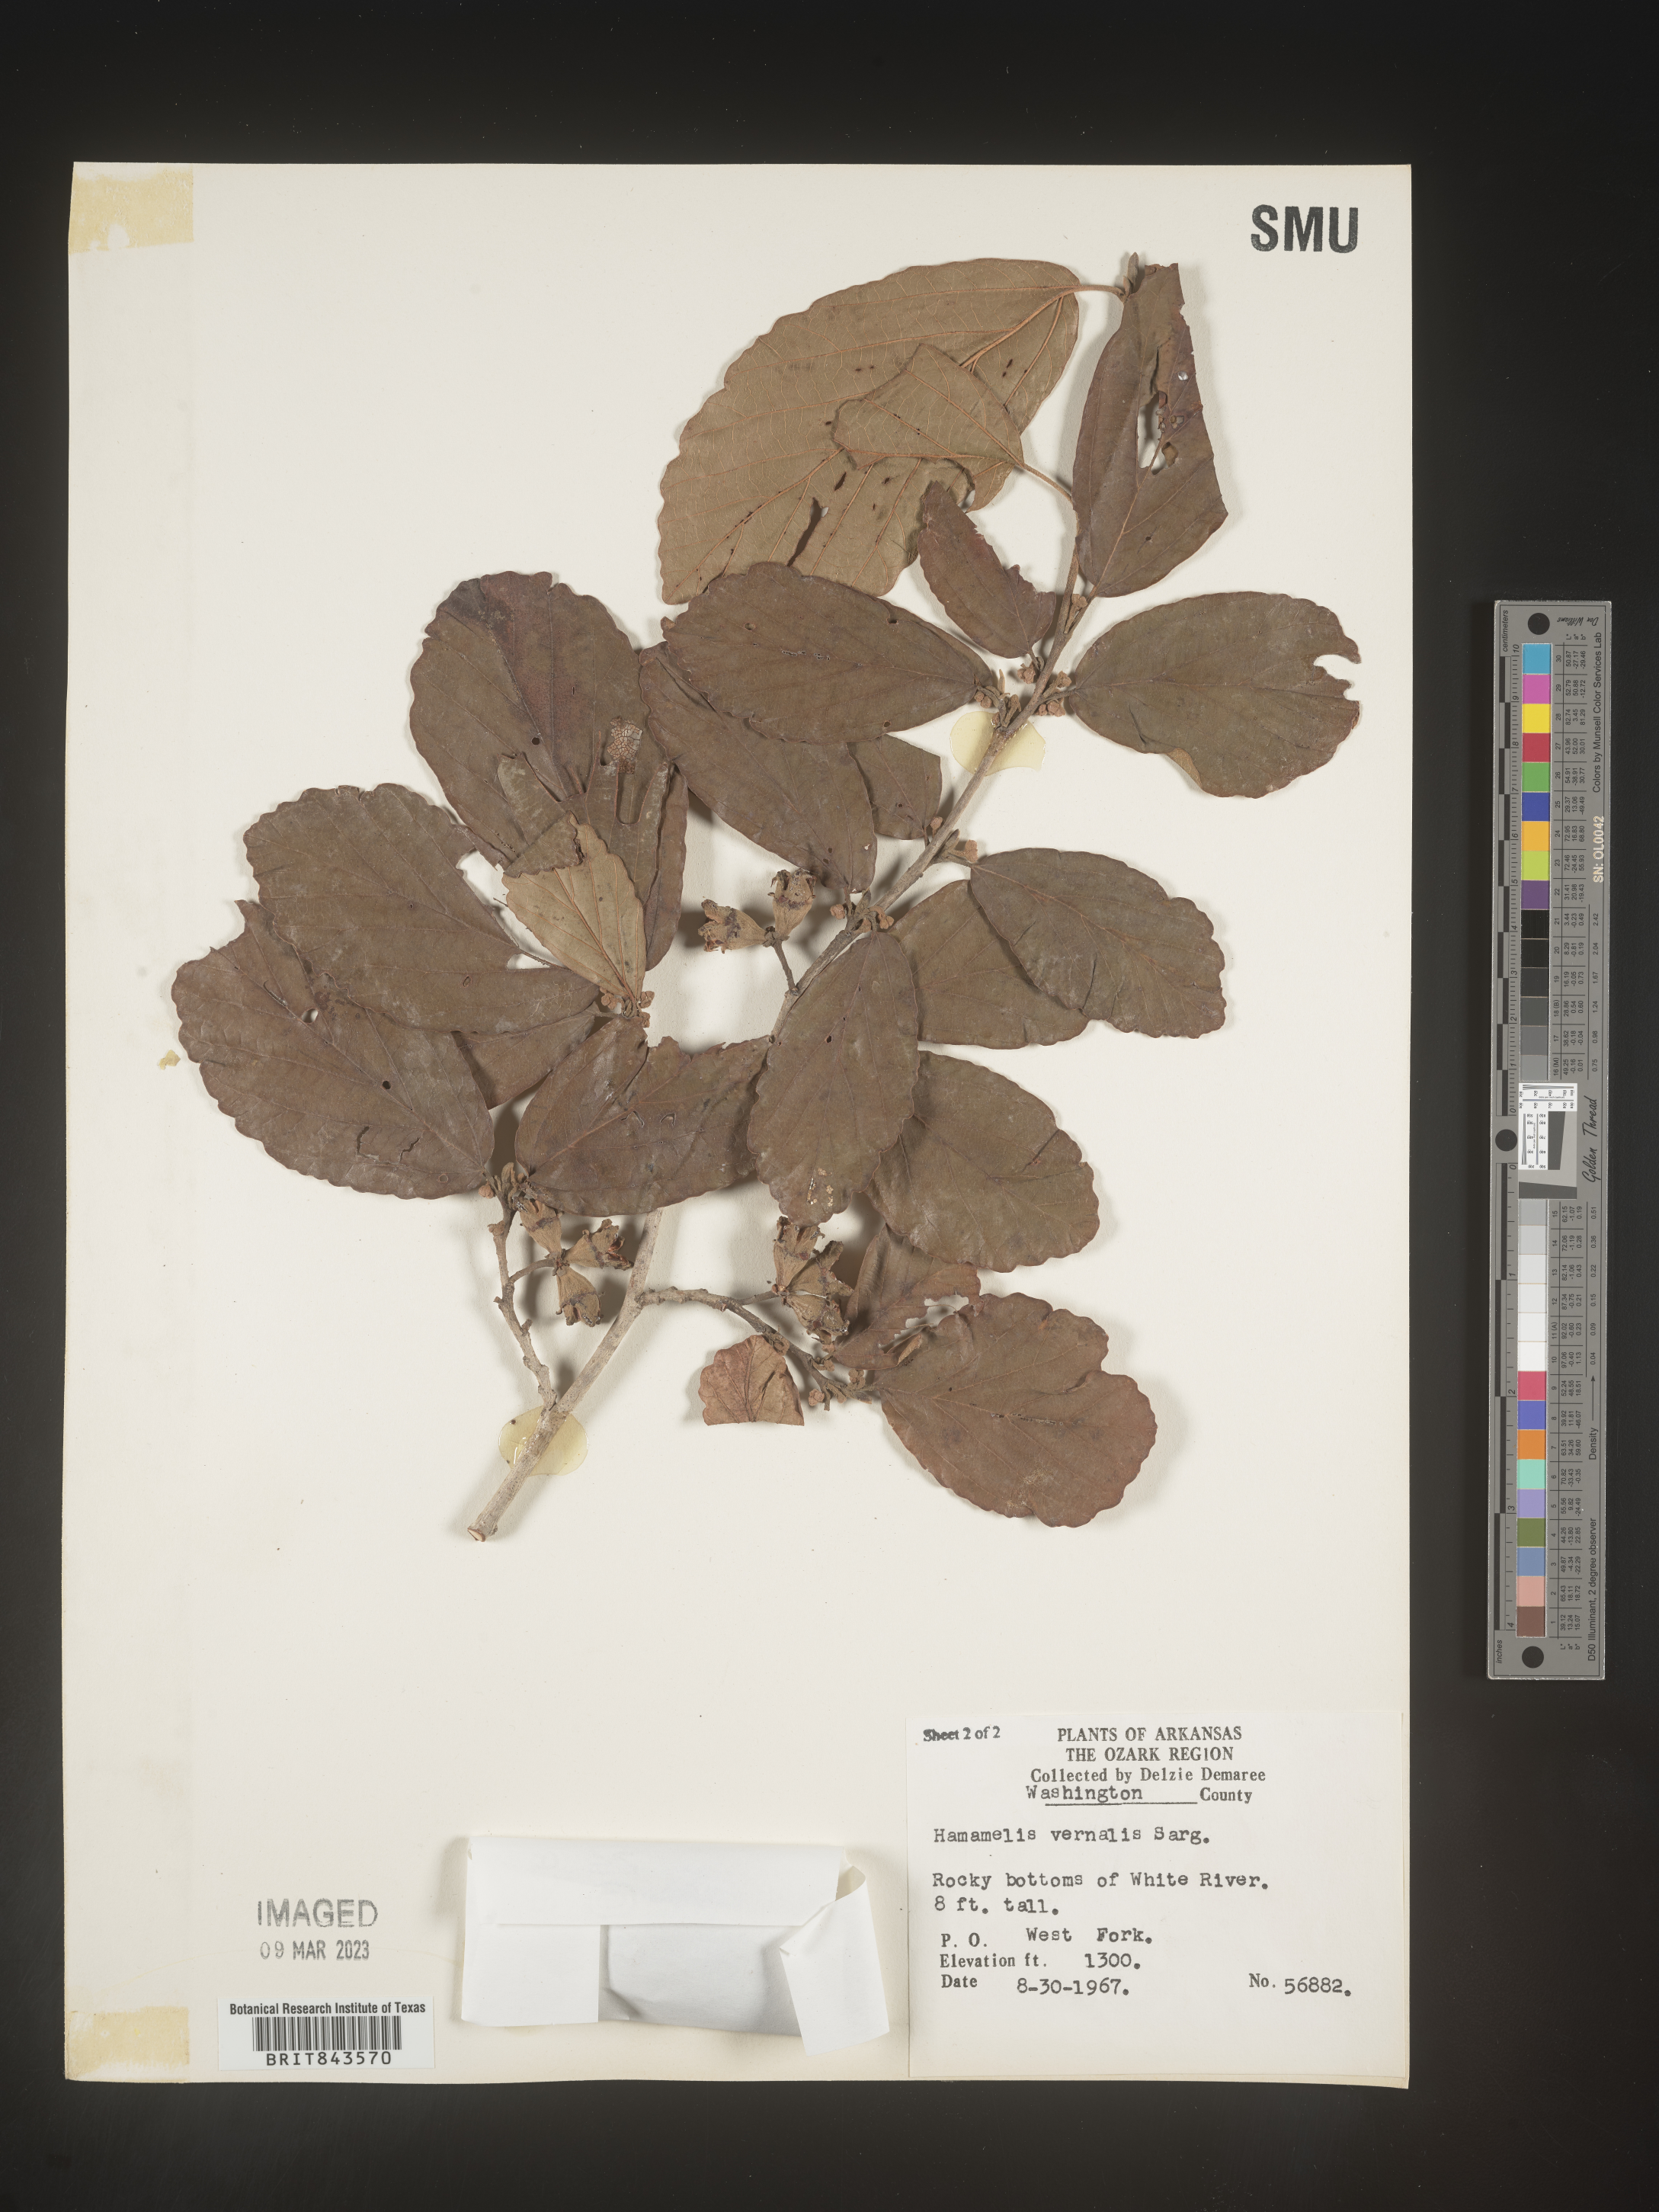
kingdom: Plantae
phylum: Tracheophyta
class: Magnoliopsida
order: Saxifragales
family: Hamamelidaceae
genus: Hamamelis
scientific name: Hamamelis vernalis
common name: Ozark witch-hazel
